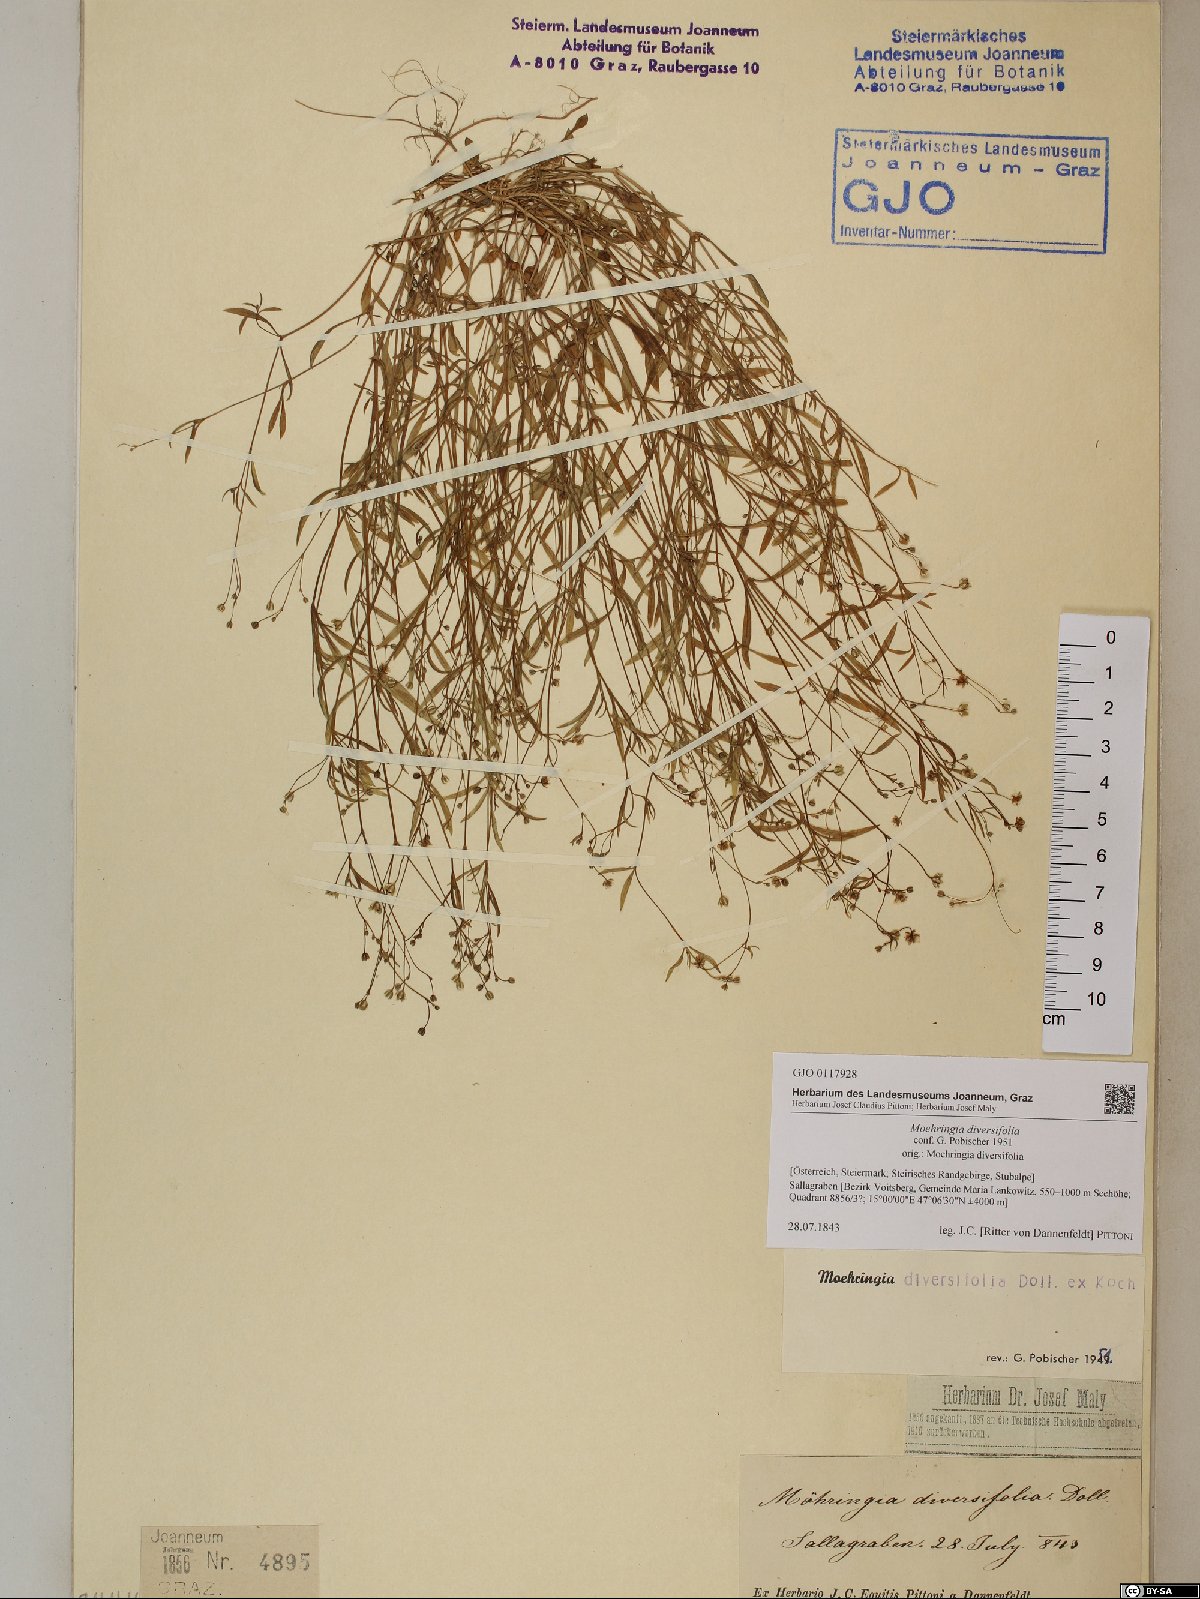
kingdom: Plantae
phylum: Tracheophyta
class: Magnoliopsida
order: Caryophyllales
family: Caryophyllaceae
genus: Moehringia
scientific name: Moehringia diversifolia
